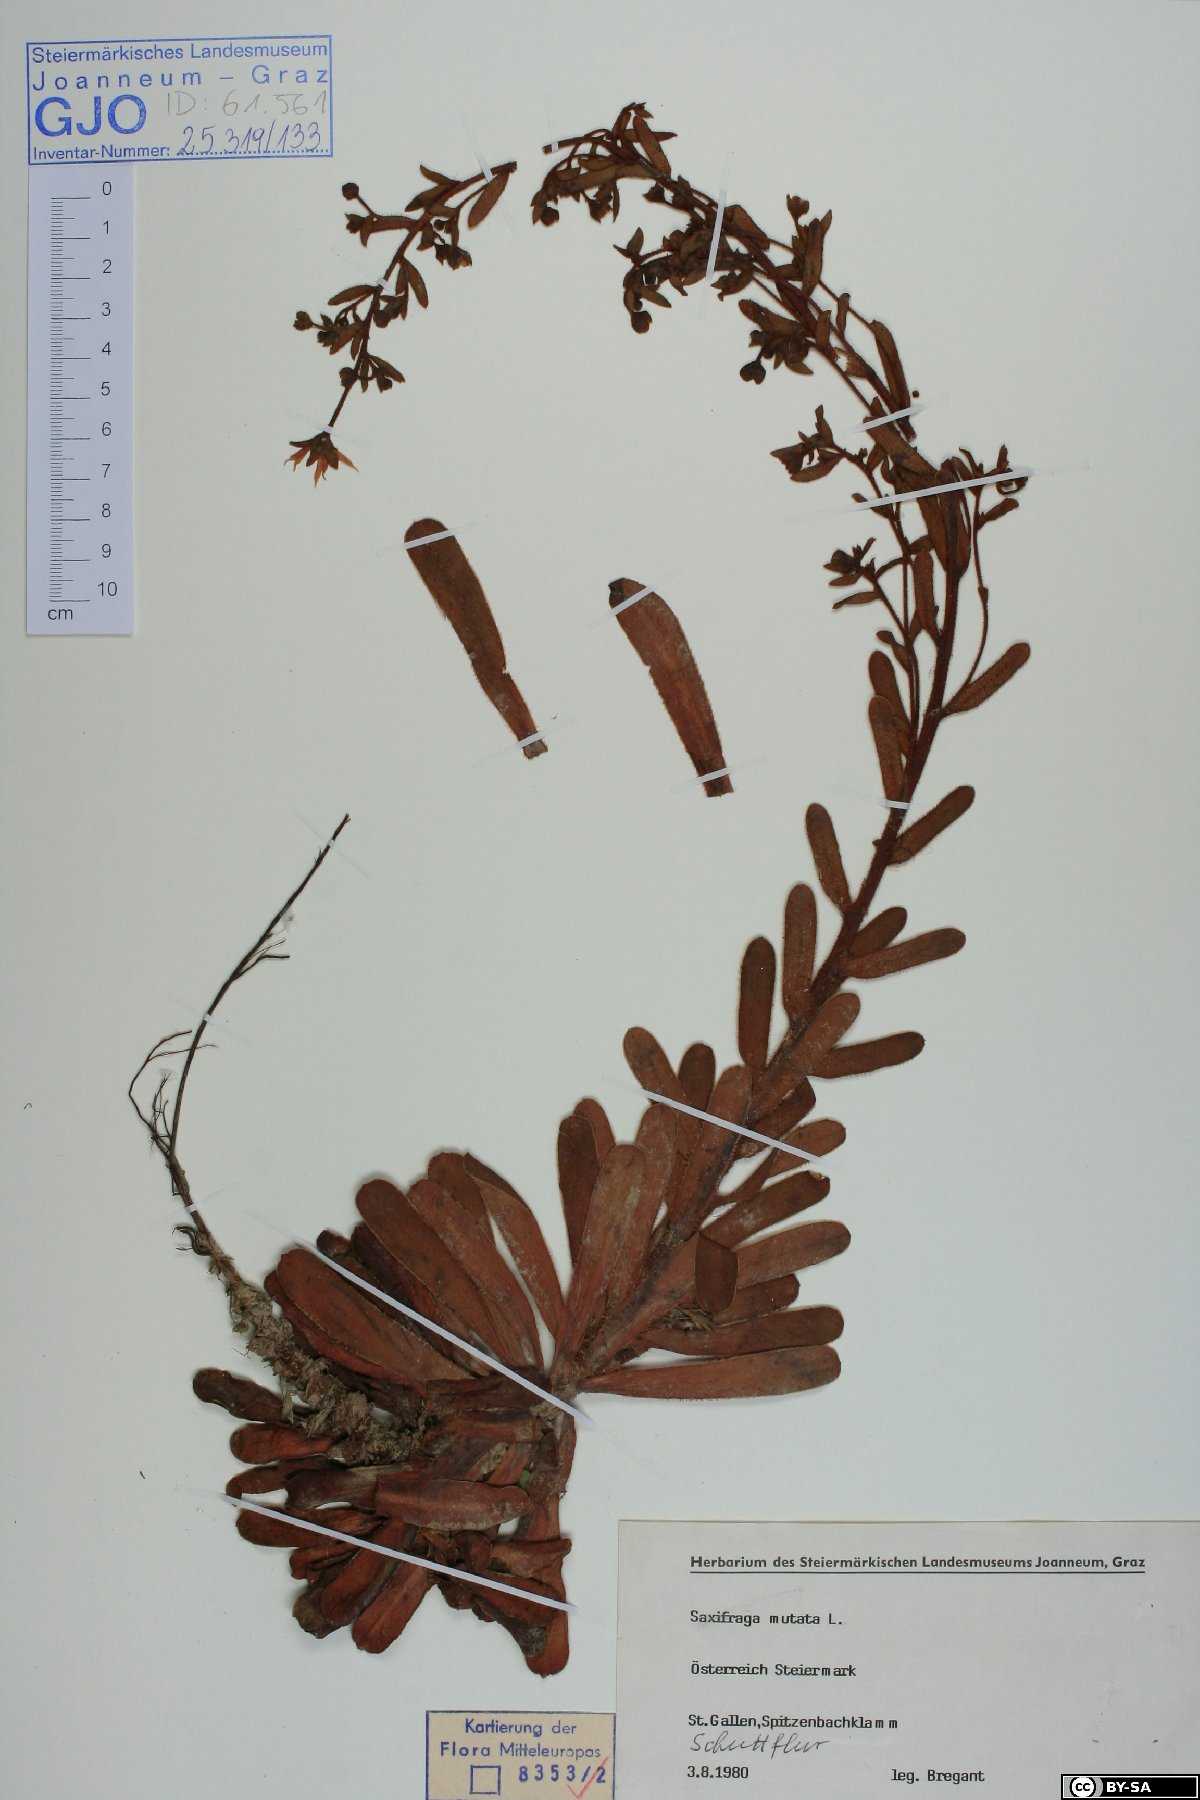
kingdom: Plantae
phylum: Tracheophyta
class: Magnoliopsida
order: Saxifragales
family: Saxifragaceae
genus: Saxifraga
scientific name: Saxifraga mutata
